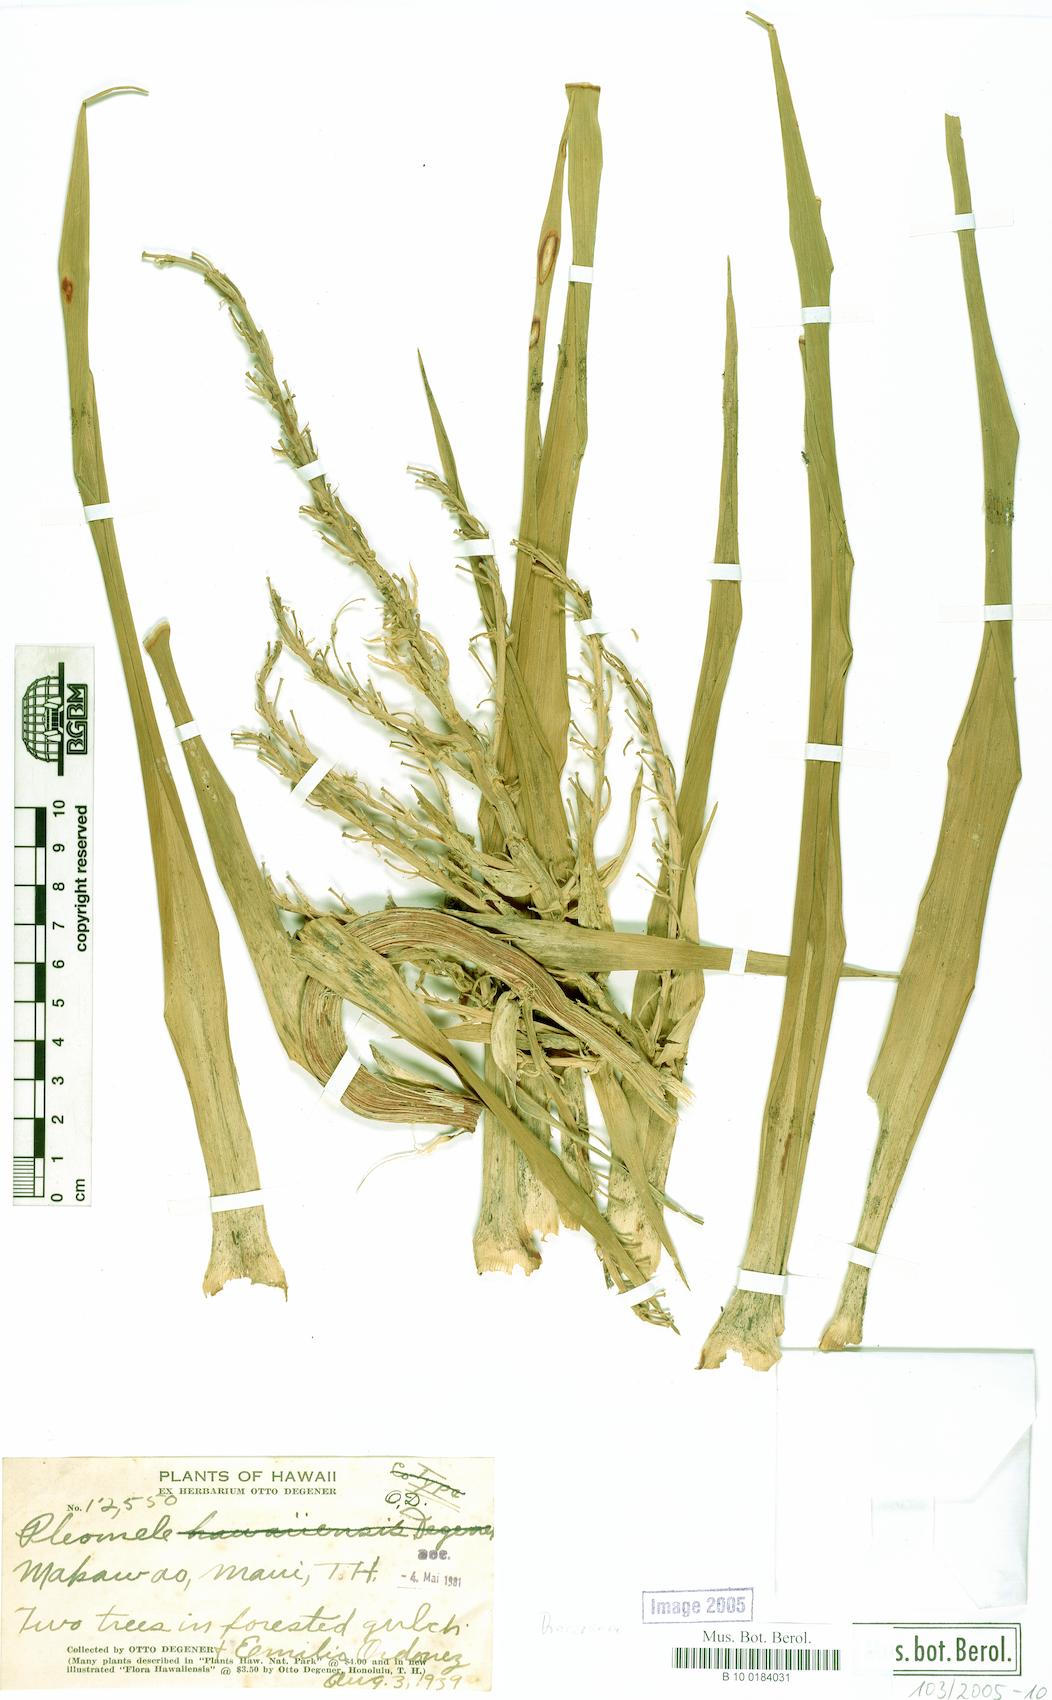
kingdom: Plantae
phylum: Tracheophyta
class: Liliopsida
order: Asparagales
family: Asparagaceae
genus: Dracaena
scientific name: Dracaena
